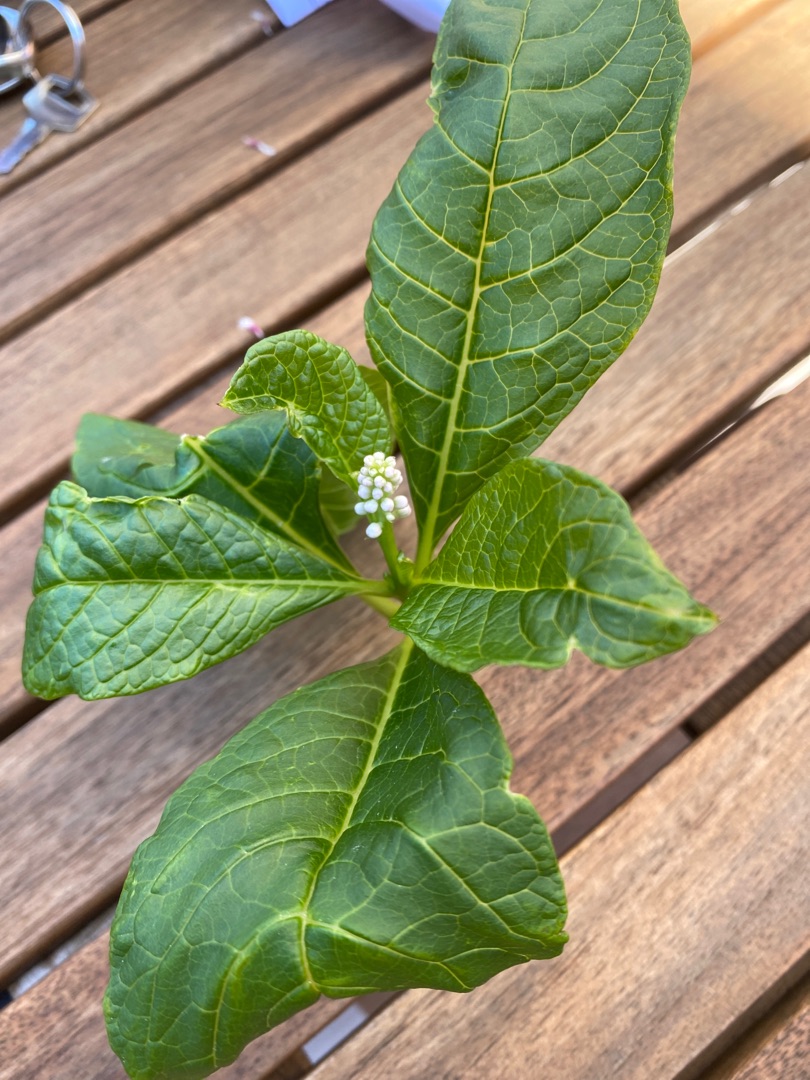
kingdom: Plantae
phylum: Tracheophyta
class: Magnoliopsida
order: Caryophyllales
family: Phytolaccaceae
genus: Phytolacca
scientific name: Phytolacca acinosa
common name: Asiatisk kermesbær
